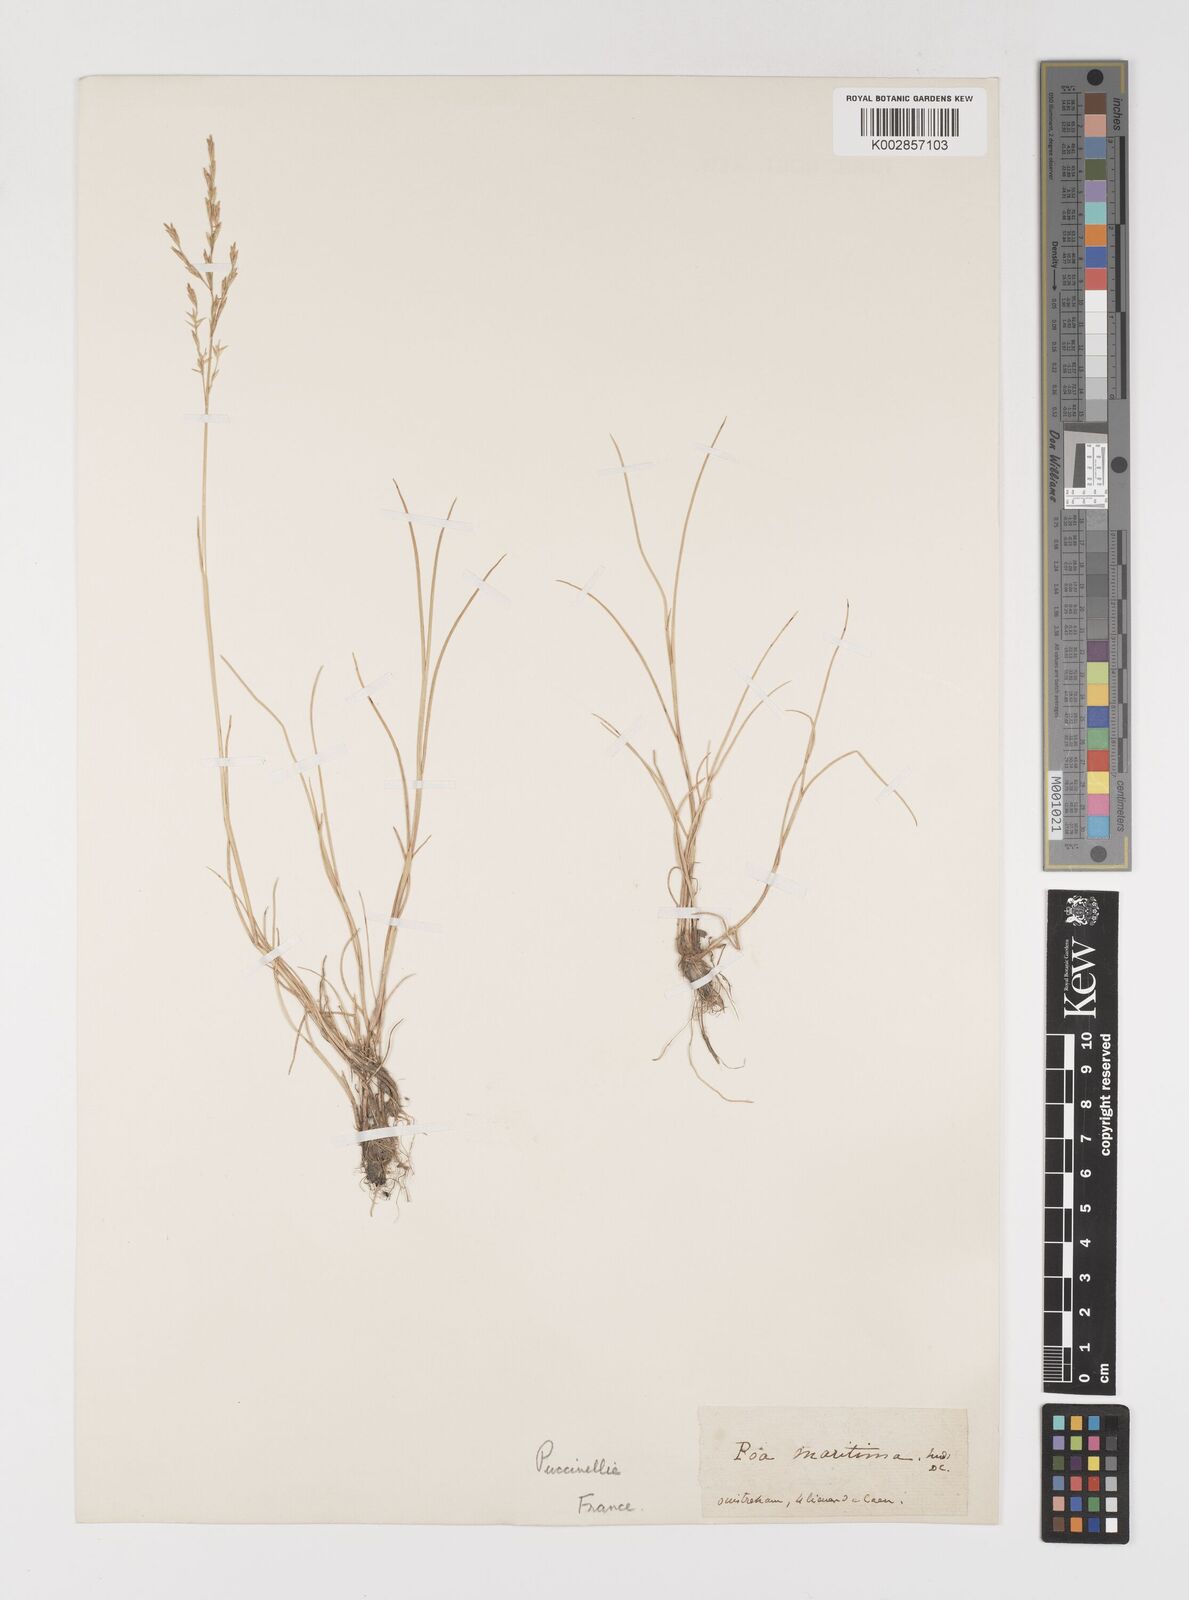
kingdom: Plantae
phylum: Tracheophyta
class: Liliopsida
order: Poales
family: Poaceae
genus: Puccinellia
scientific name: Puccinellia maritima
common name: Common saltmarsh grass
